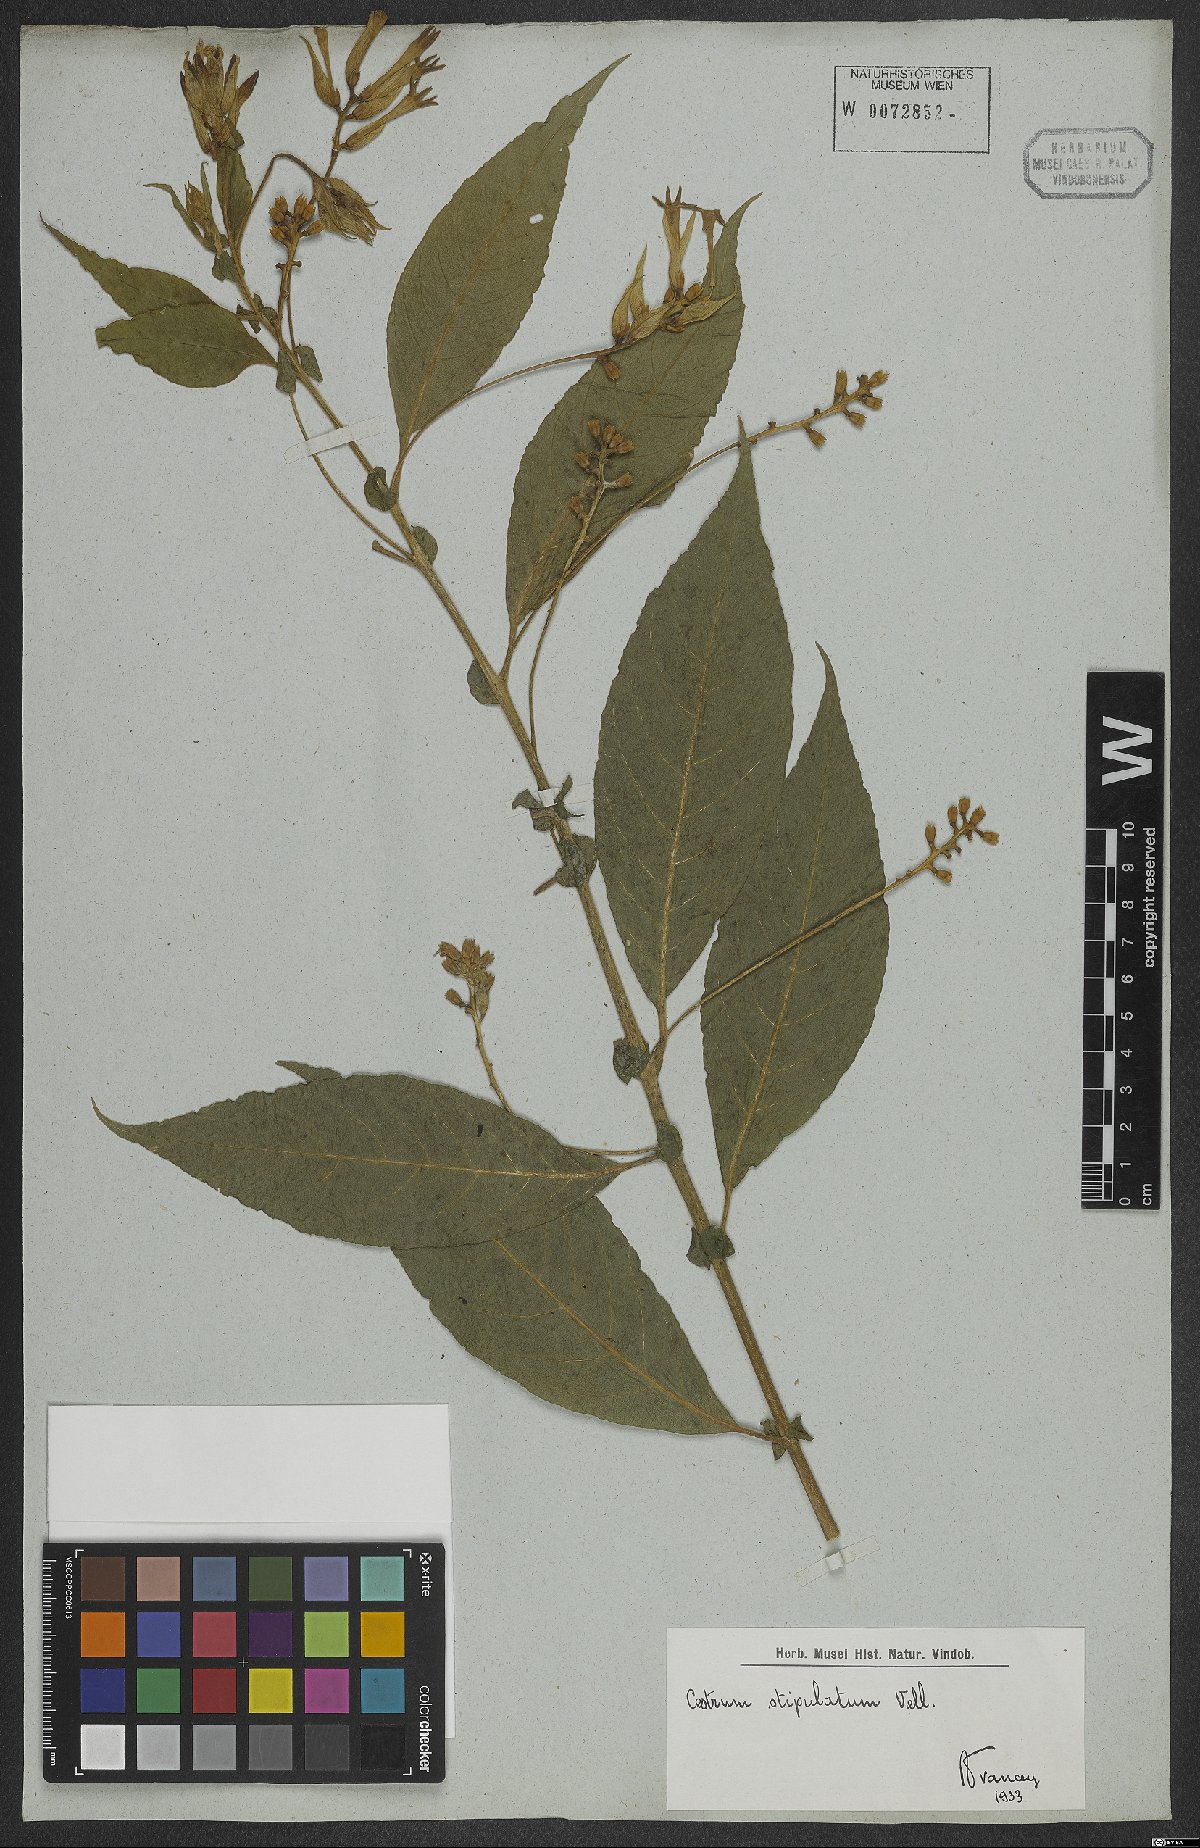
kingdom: Plantae
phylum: Tracheophyta
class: Magnoliopsida
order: Solanales
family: Solanaceae
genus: Cestrum
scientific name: Cestrum bracteatum
